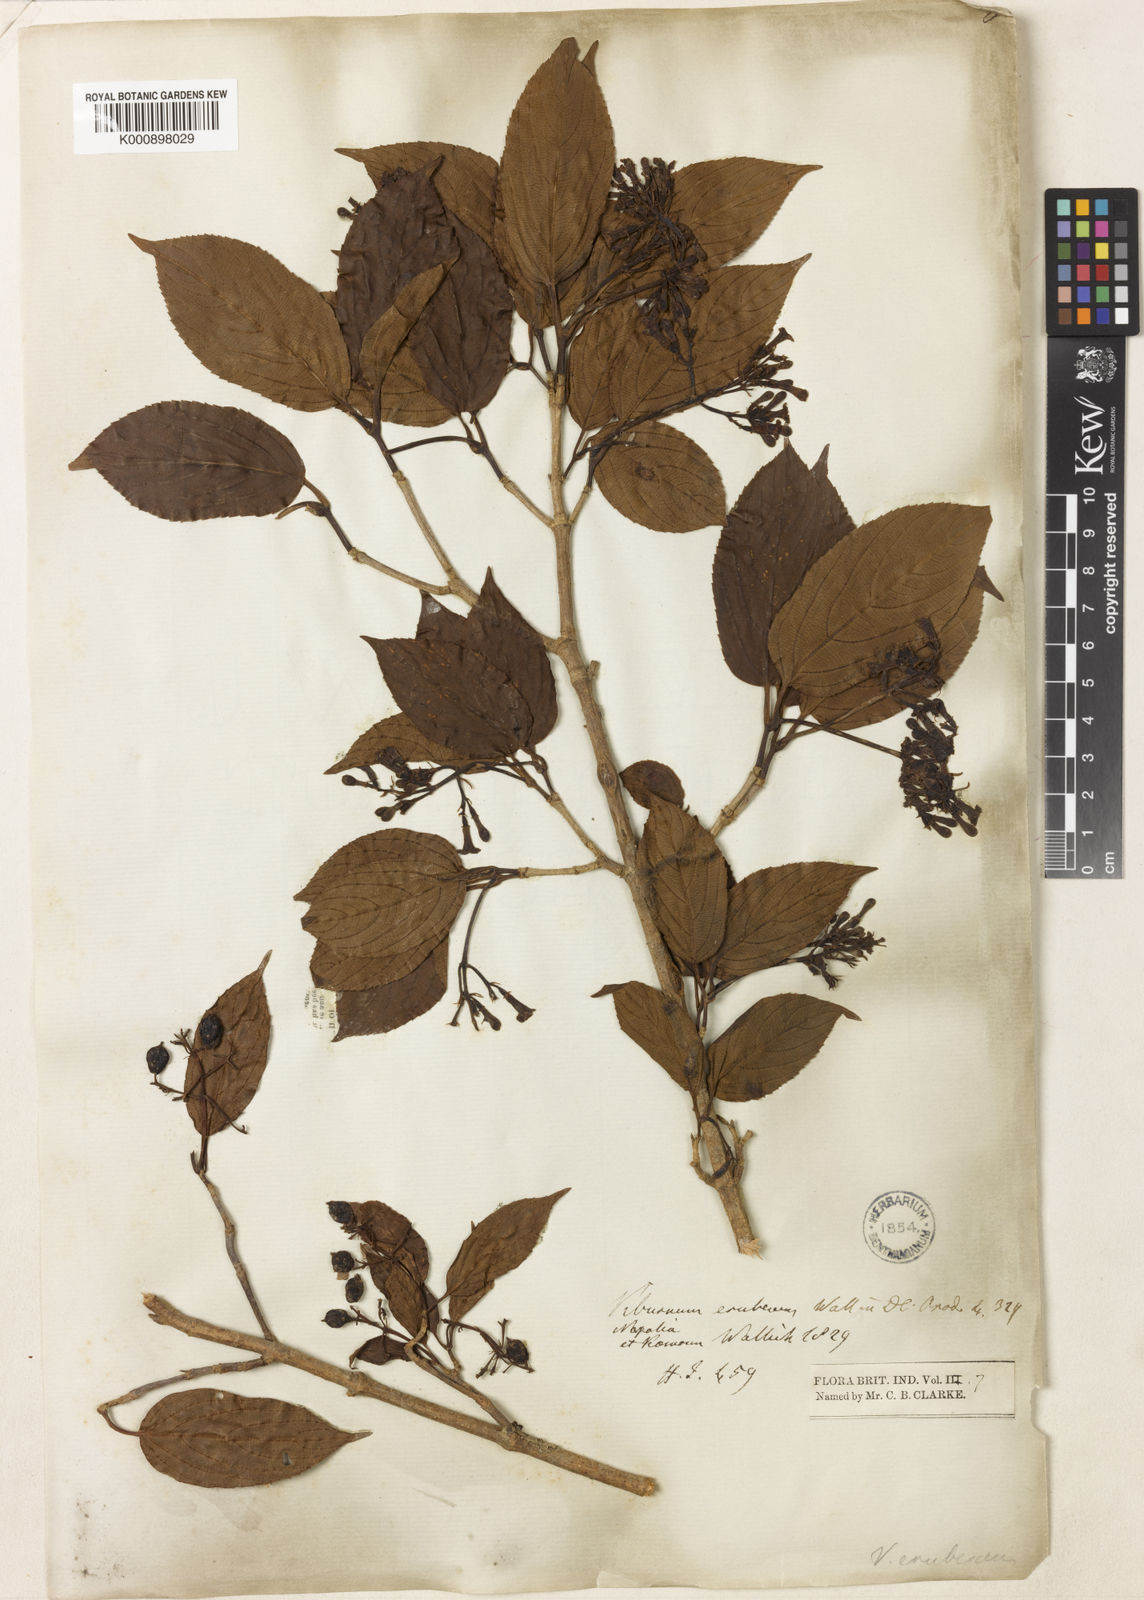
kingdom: Plantae
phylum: Tracheophyta
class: Magnoliopsida
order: Dipsacales
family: Viburnaceae
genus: Viburnum
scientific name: Viburnum
